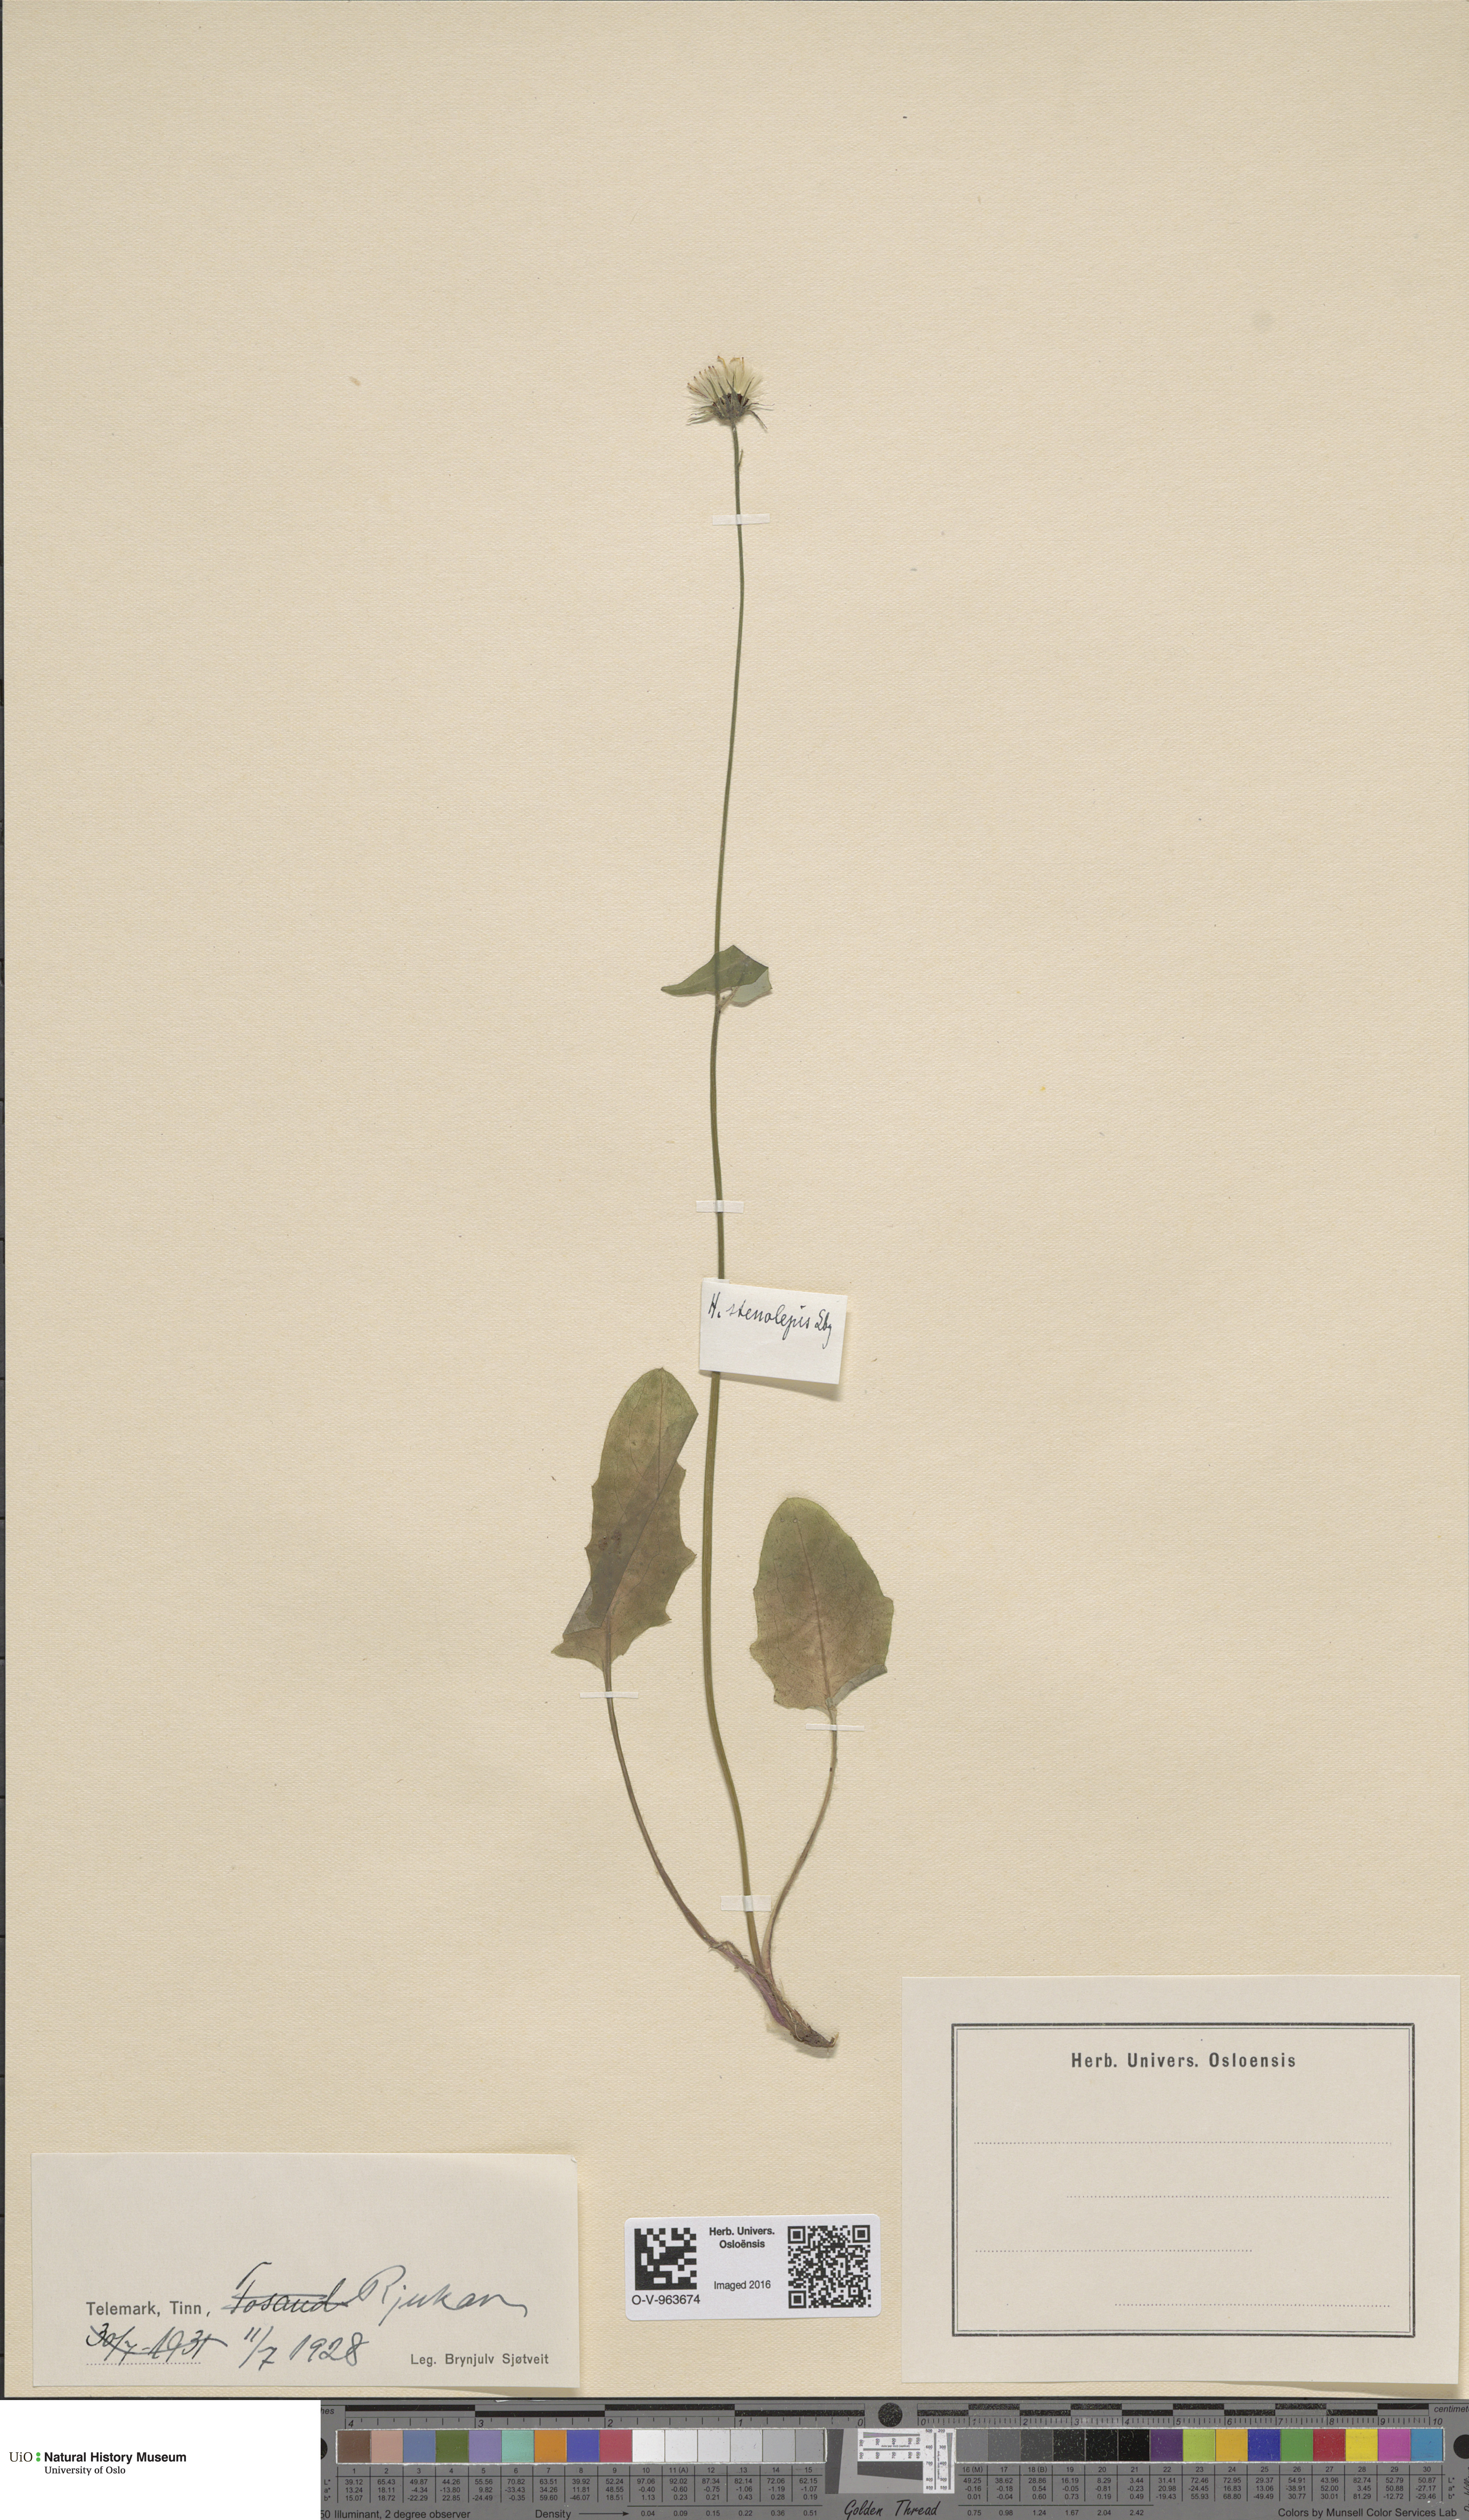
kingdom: Plantae
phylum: Tracheophyta
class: Magnoliopsida
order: Asterales
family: Asteraceae
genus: Hieracium
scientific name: Hieracium bifidum
